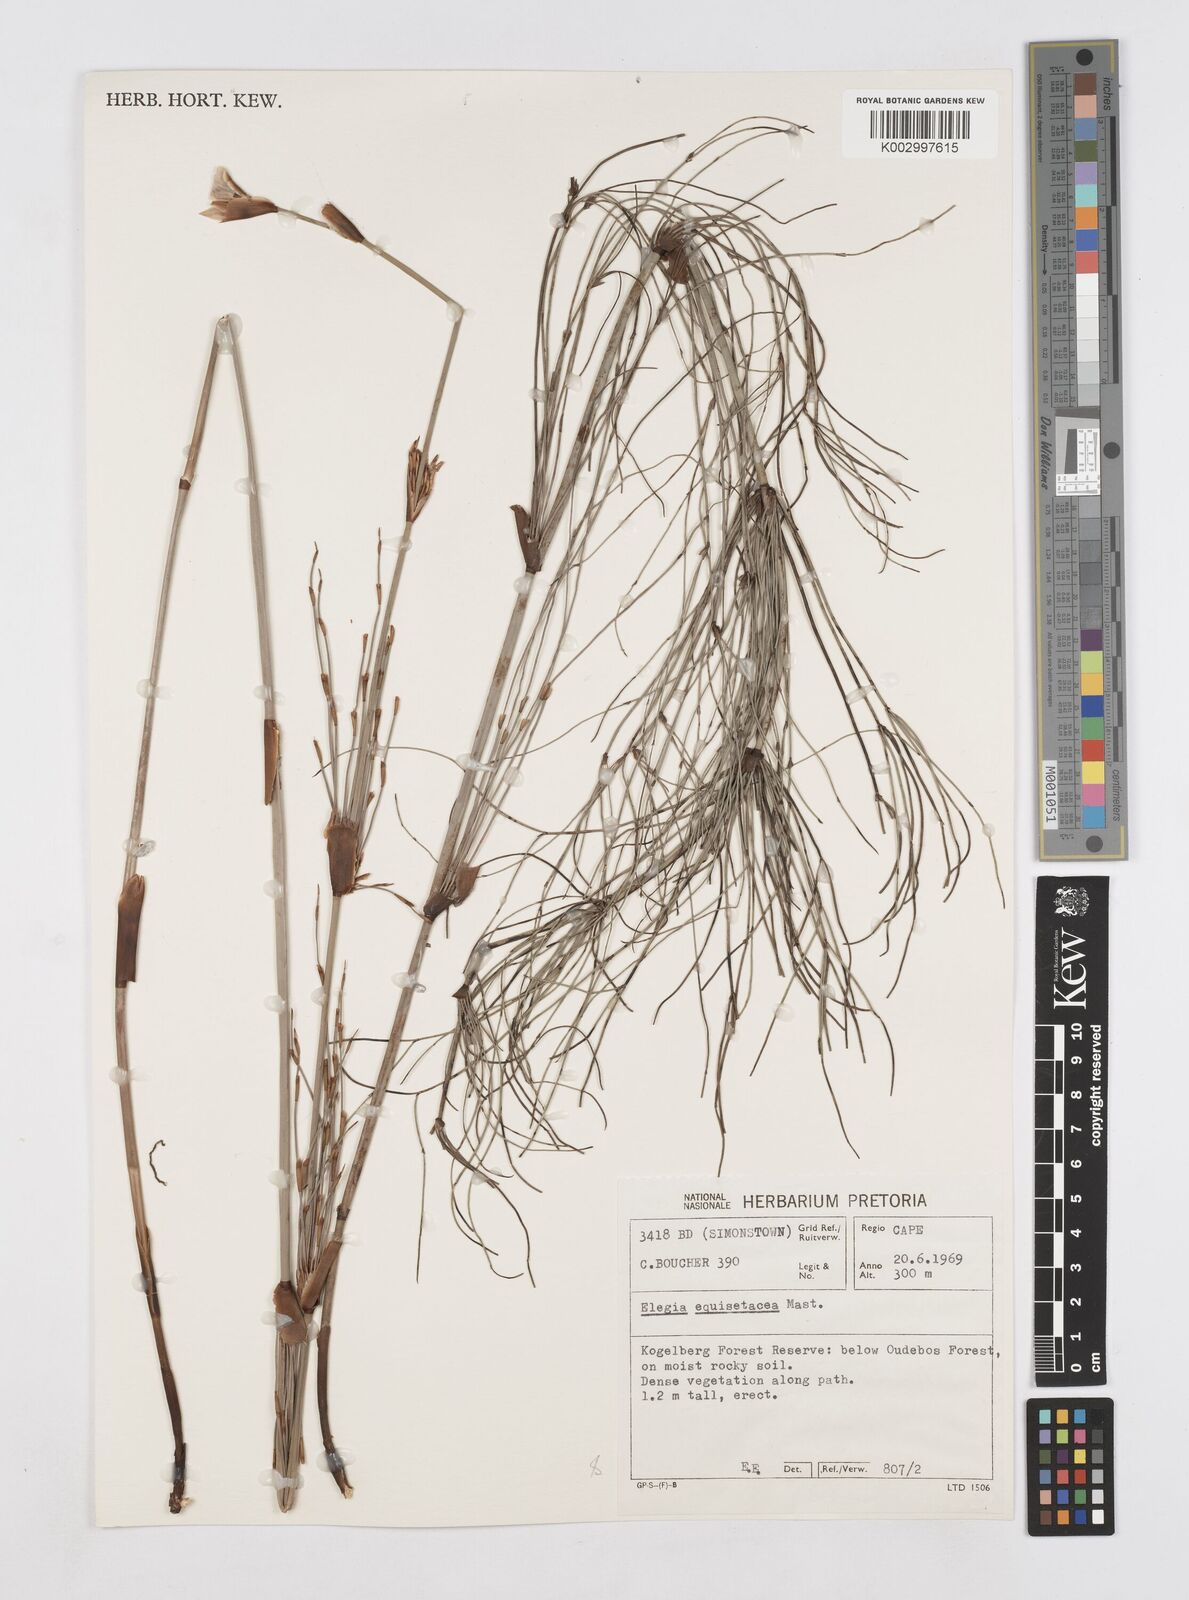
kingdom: Plantae
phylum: Tracheophyta
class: Liliopsida
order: Poales
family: Restionaceae
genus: Elegia
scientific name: Elegia equisetacea
